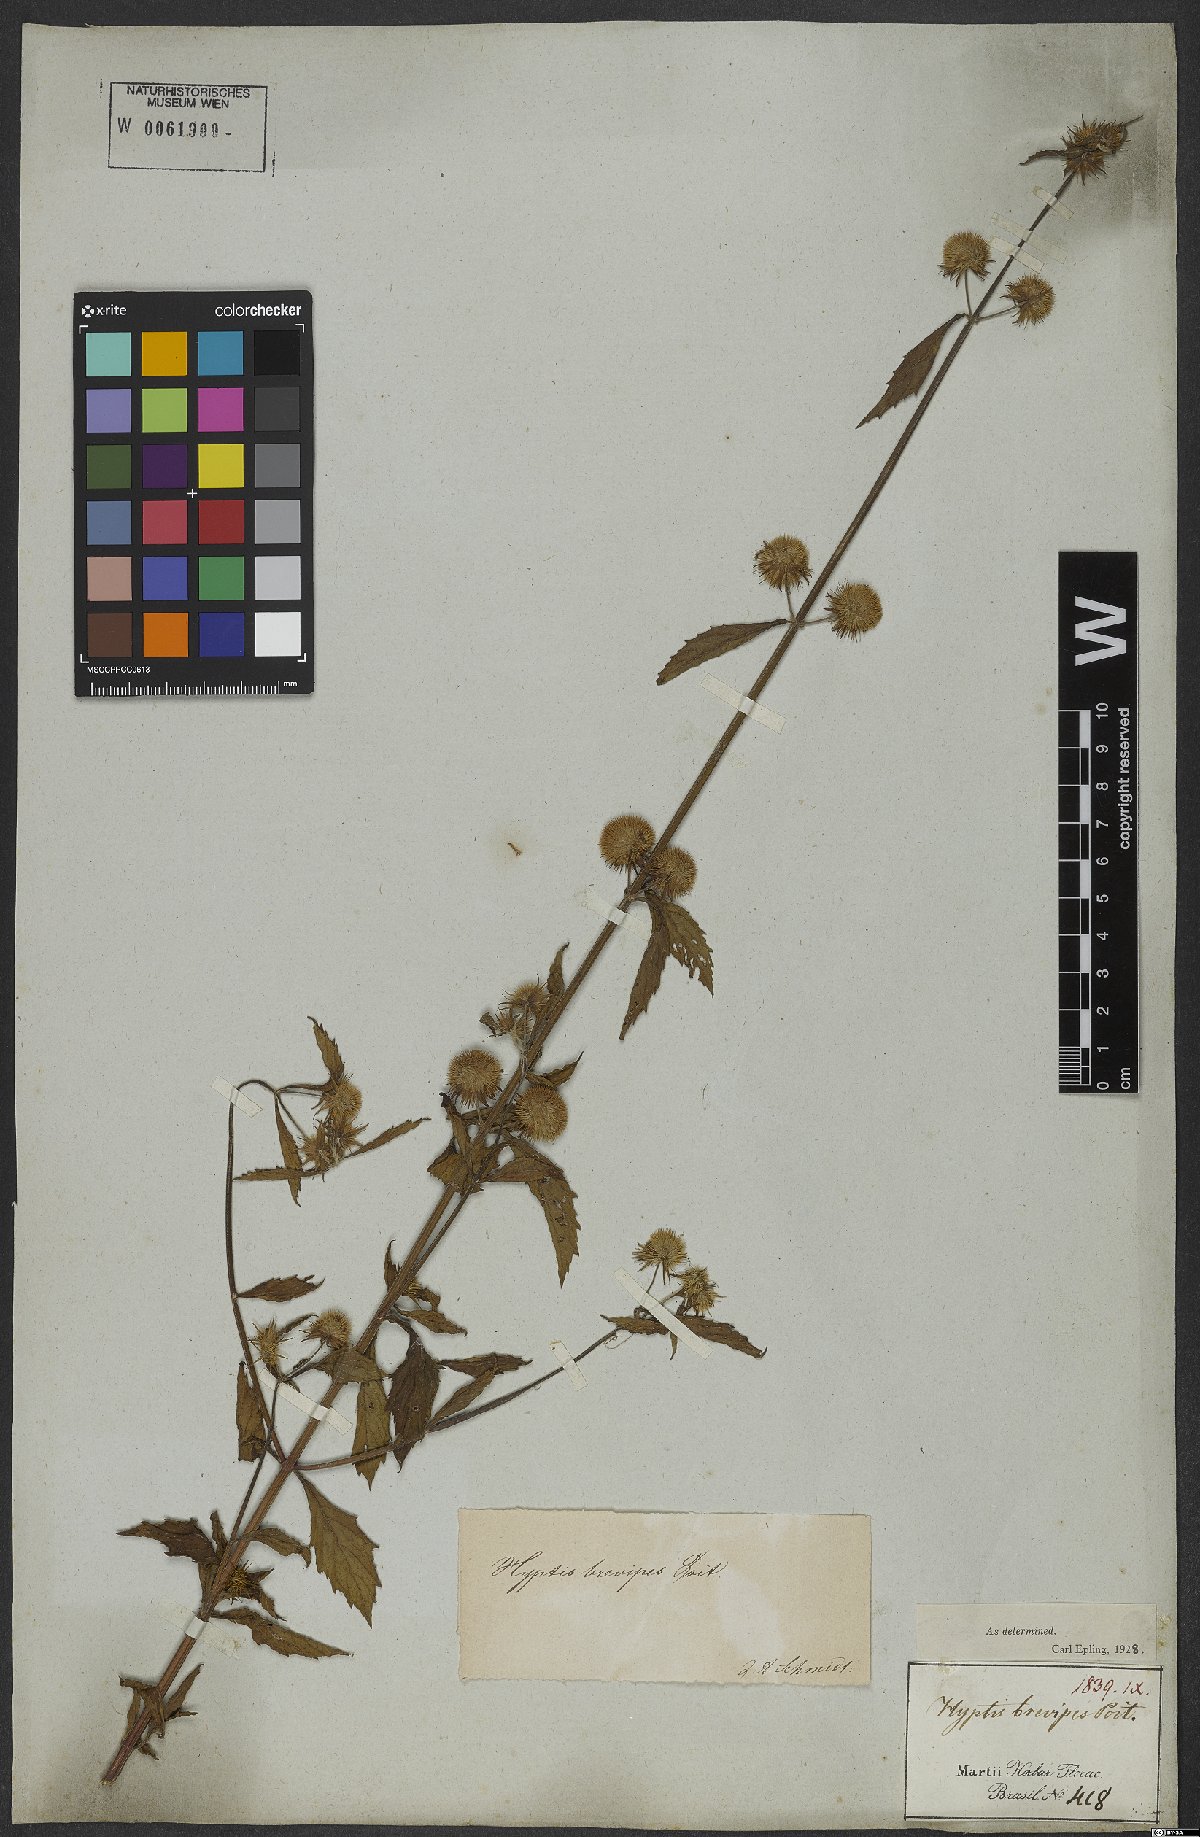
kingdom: Plantae
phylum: Tracheophyta
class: Magnoliopsida
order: Lamiales
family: Lamiaceae
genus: Hyptis
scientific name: Hyptis brevipes
